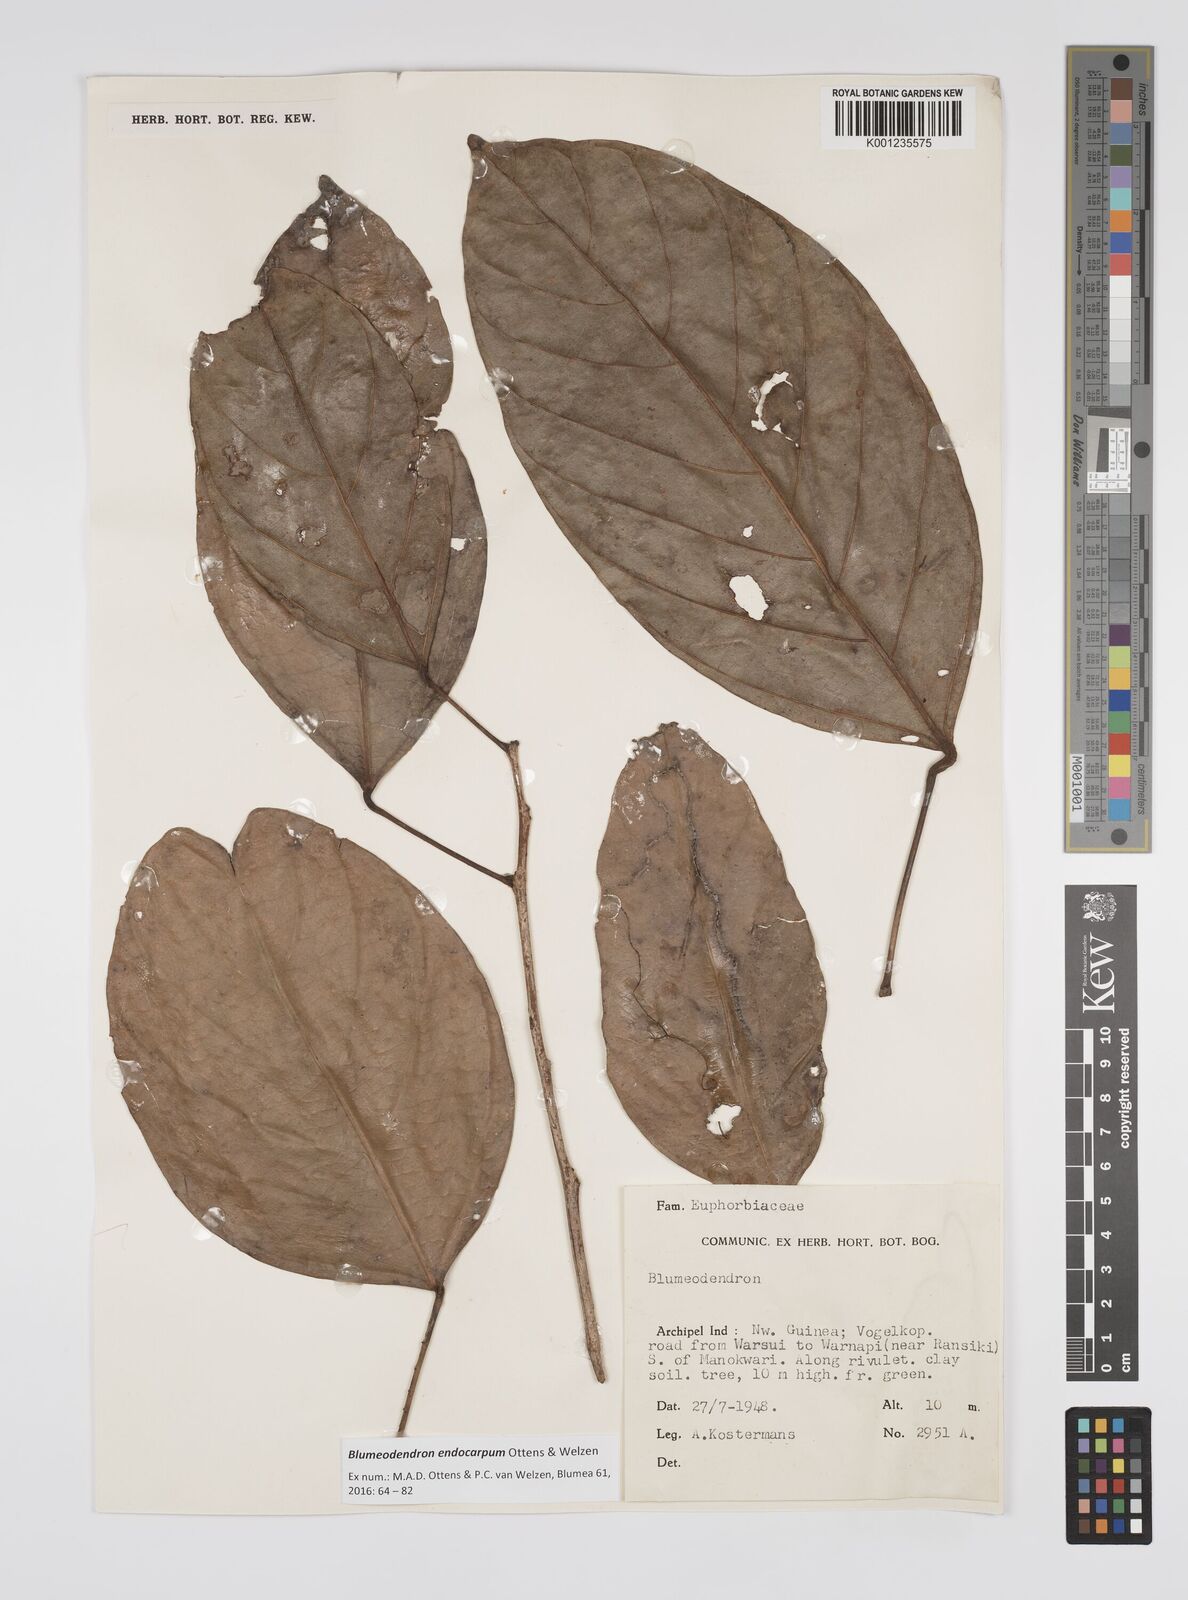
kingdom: Plantae
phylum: Tracheophyta
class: Magnoliopsida
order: Malpighiales
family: Euphorbiaceae
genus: Blumeodendron
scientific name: Blumeodendron endocarpum
